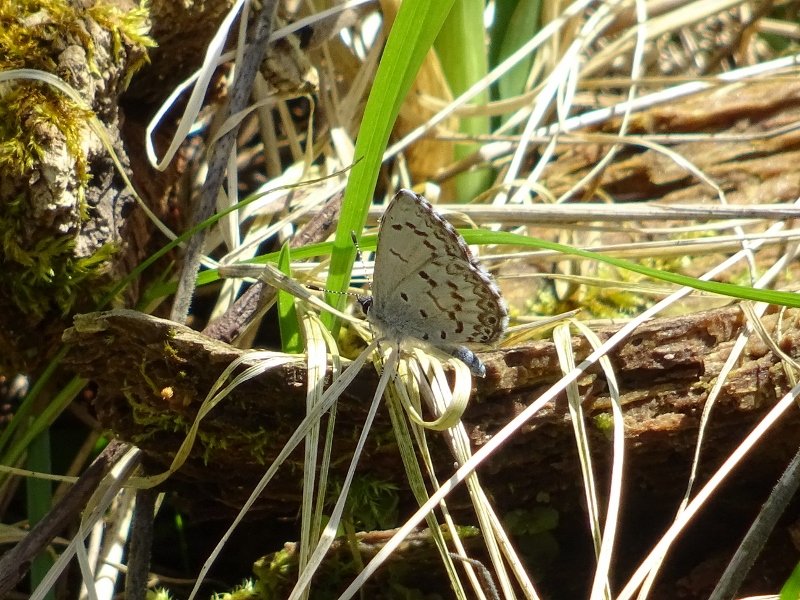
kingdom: Animalia
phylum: Arthropoda
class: Insecta
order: Lepidoptera
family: Lycaenidae
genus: Celastrina
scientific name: Celastrina
